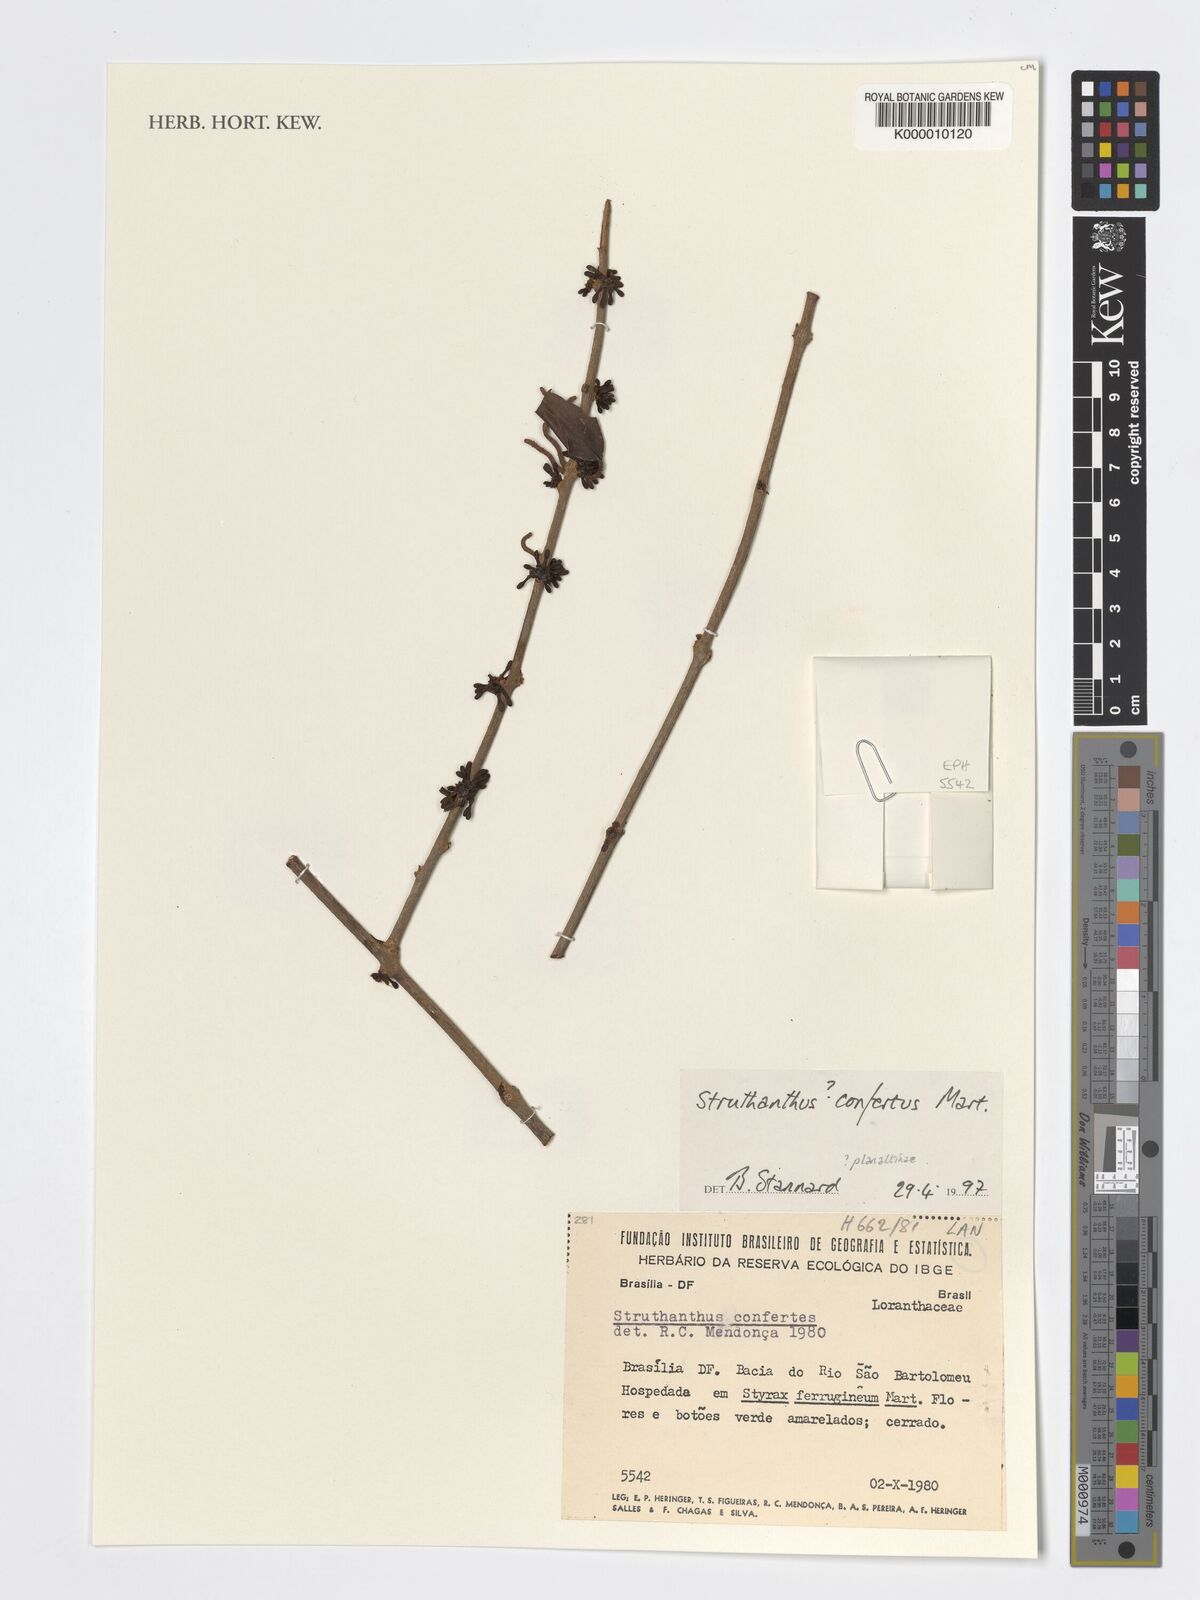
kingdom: Plantae
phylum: Tracheophyta
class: Magnoliopsida
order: Santalales
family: Loranthaceae
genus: Struthanthus
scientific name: Struthanthus confertus
